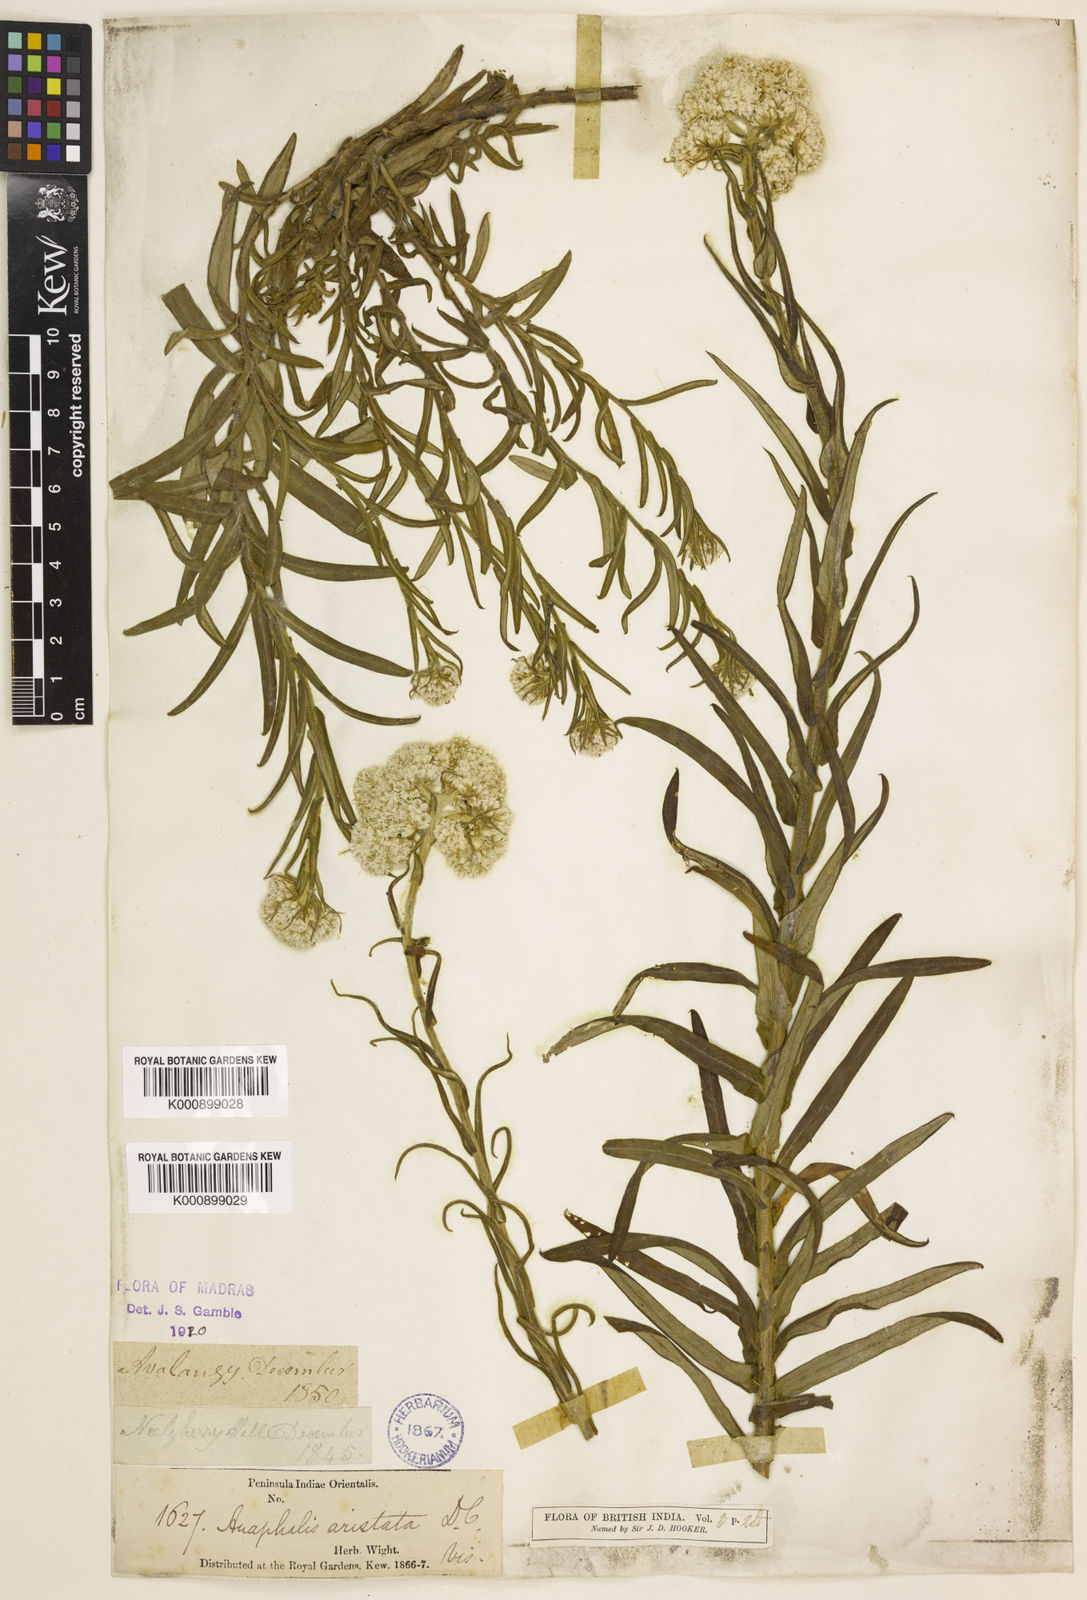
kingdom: Plantae
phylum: Tracheophyta
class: Magnoliopsida
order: Asterales
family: Asteraceae
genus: Anaphalis
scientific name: Anaphalis aristata
